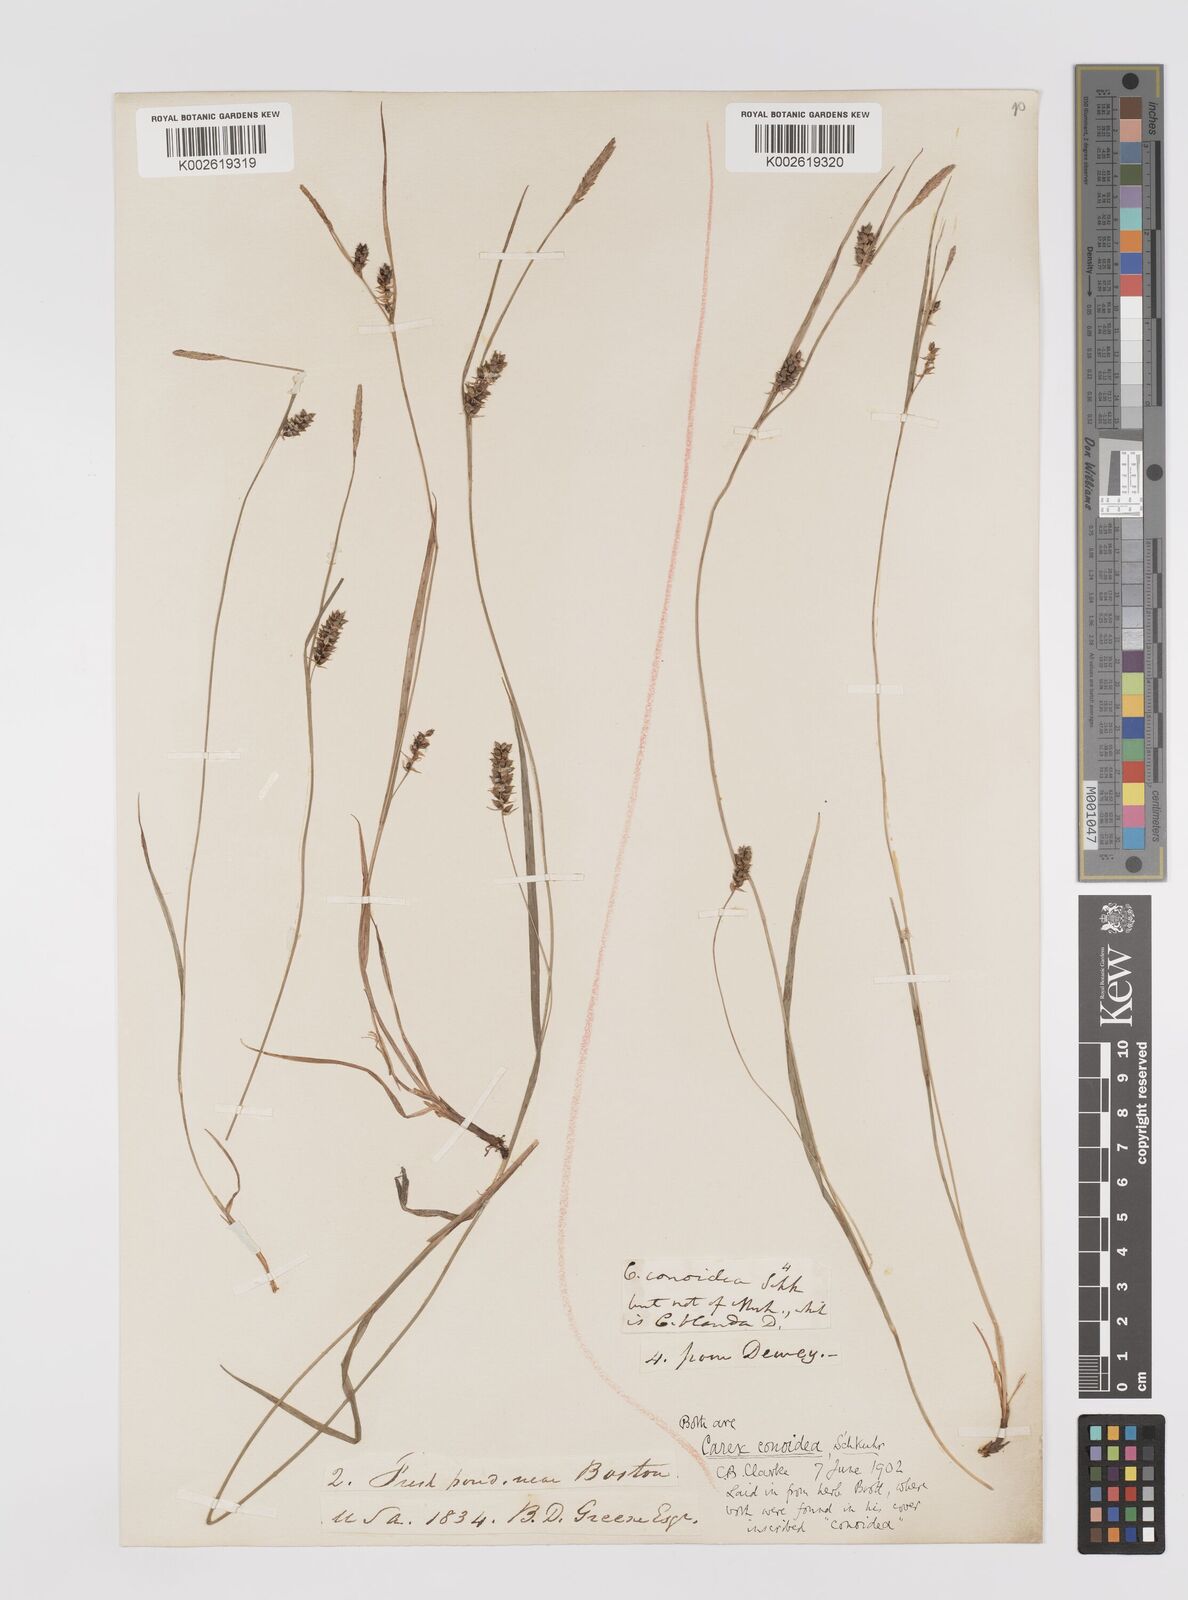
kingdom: Plantae
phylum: Tracheophyta
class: Liliopsida
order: Poales
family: Cyperaceae
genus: Carex
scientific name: Carex conoidea
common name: Cone shaped sedge
